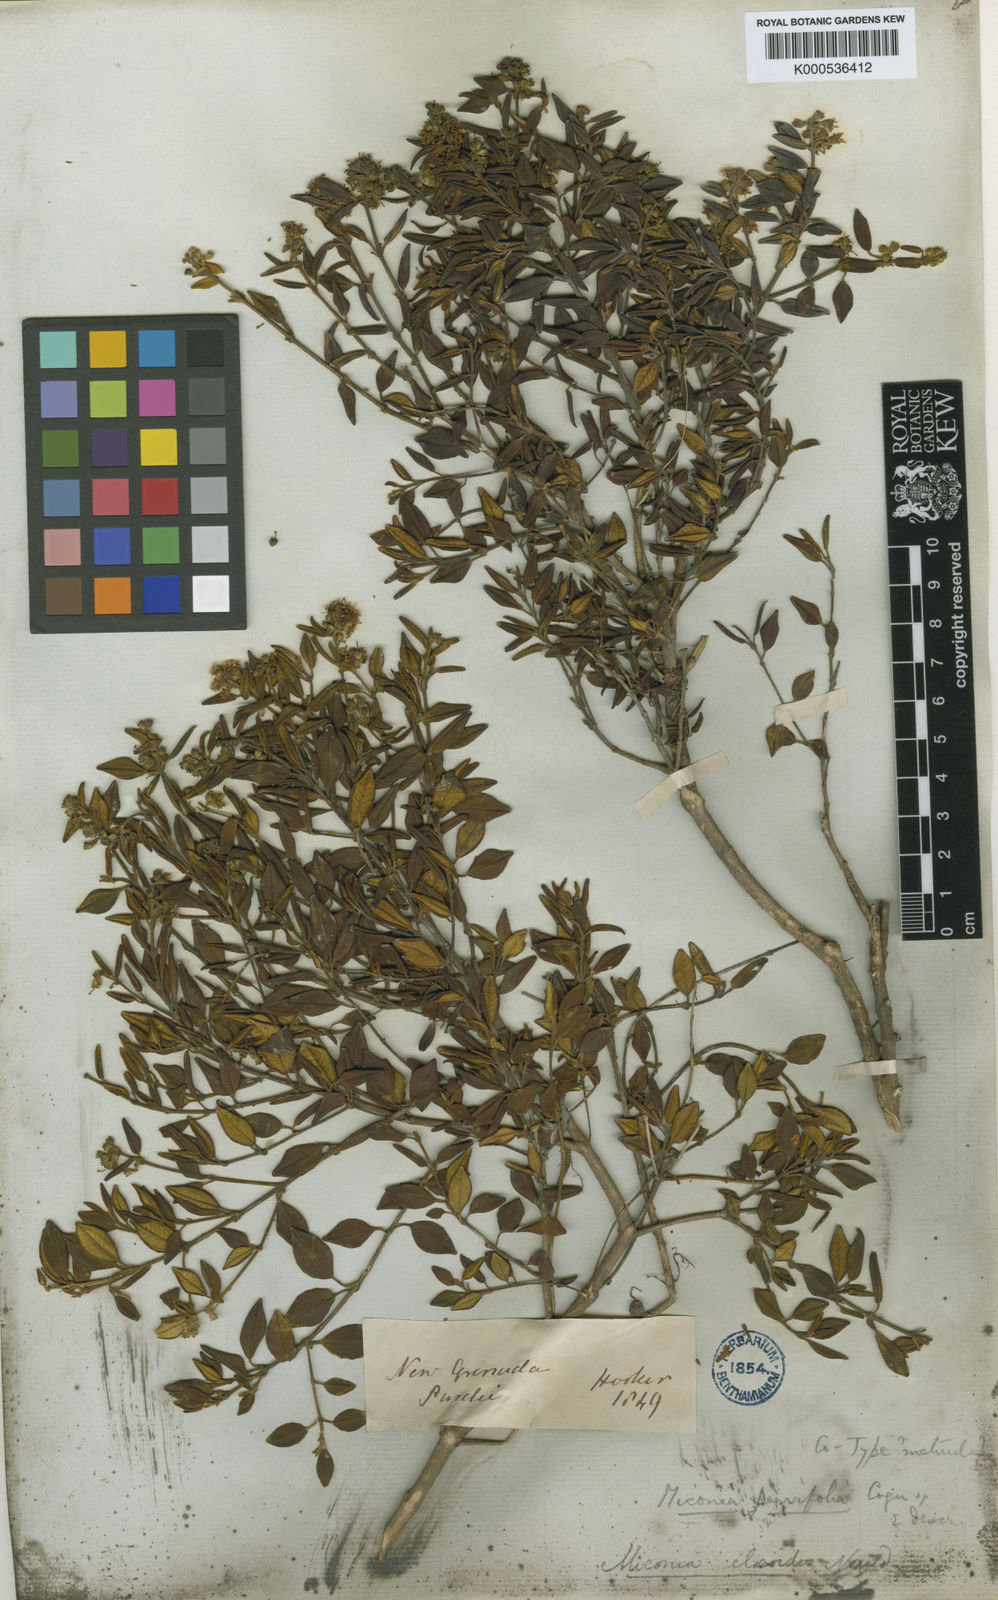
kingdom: Plantae
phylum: Tracheophyta
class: Magnoliopsida
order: Myrtales
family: Melastomataceae
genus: Miconia
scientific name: Miconia parvifolia
